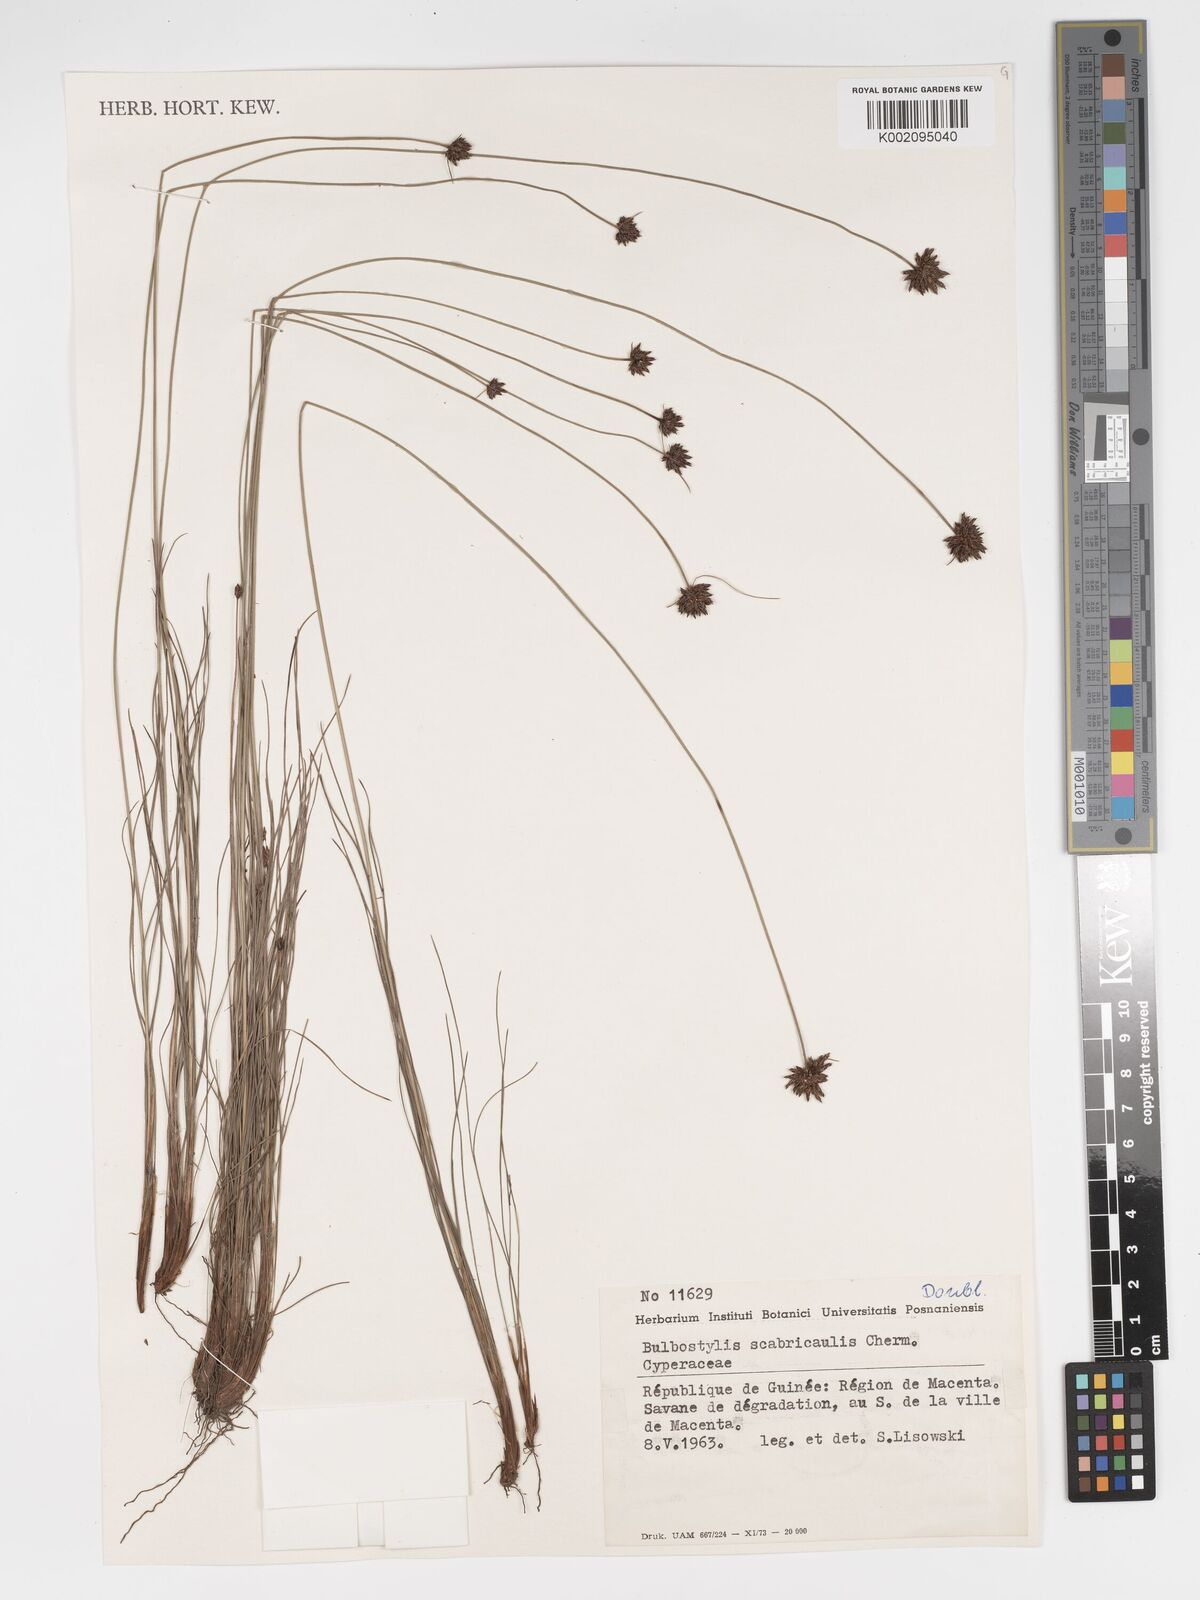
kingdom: Plantae
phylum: Tracheophyta
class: Liliopsida
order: Poales
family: Cyperaceae
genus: Bulbostylis
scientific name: Bulbostylis scabricaulis
